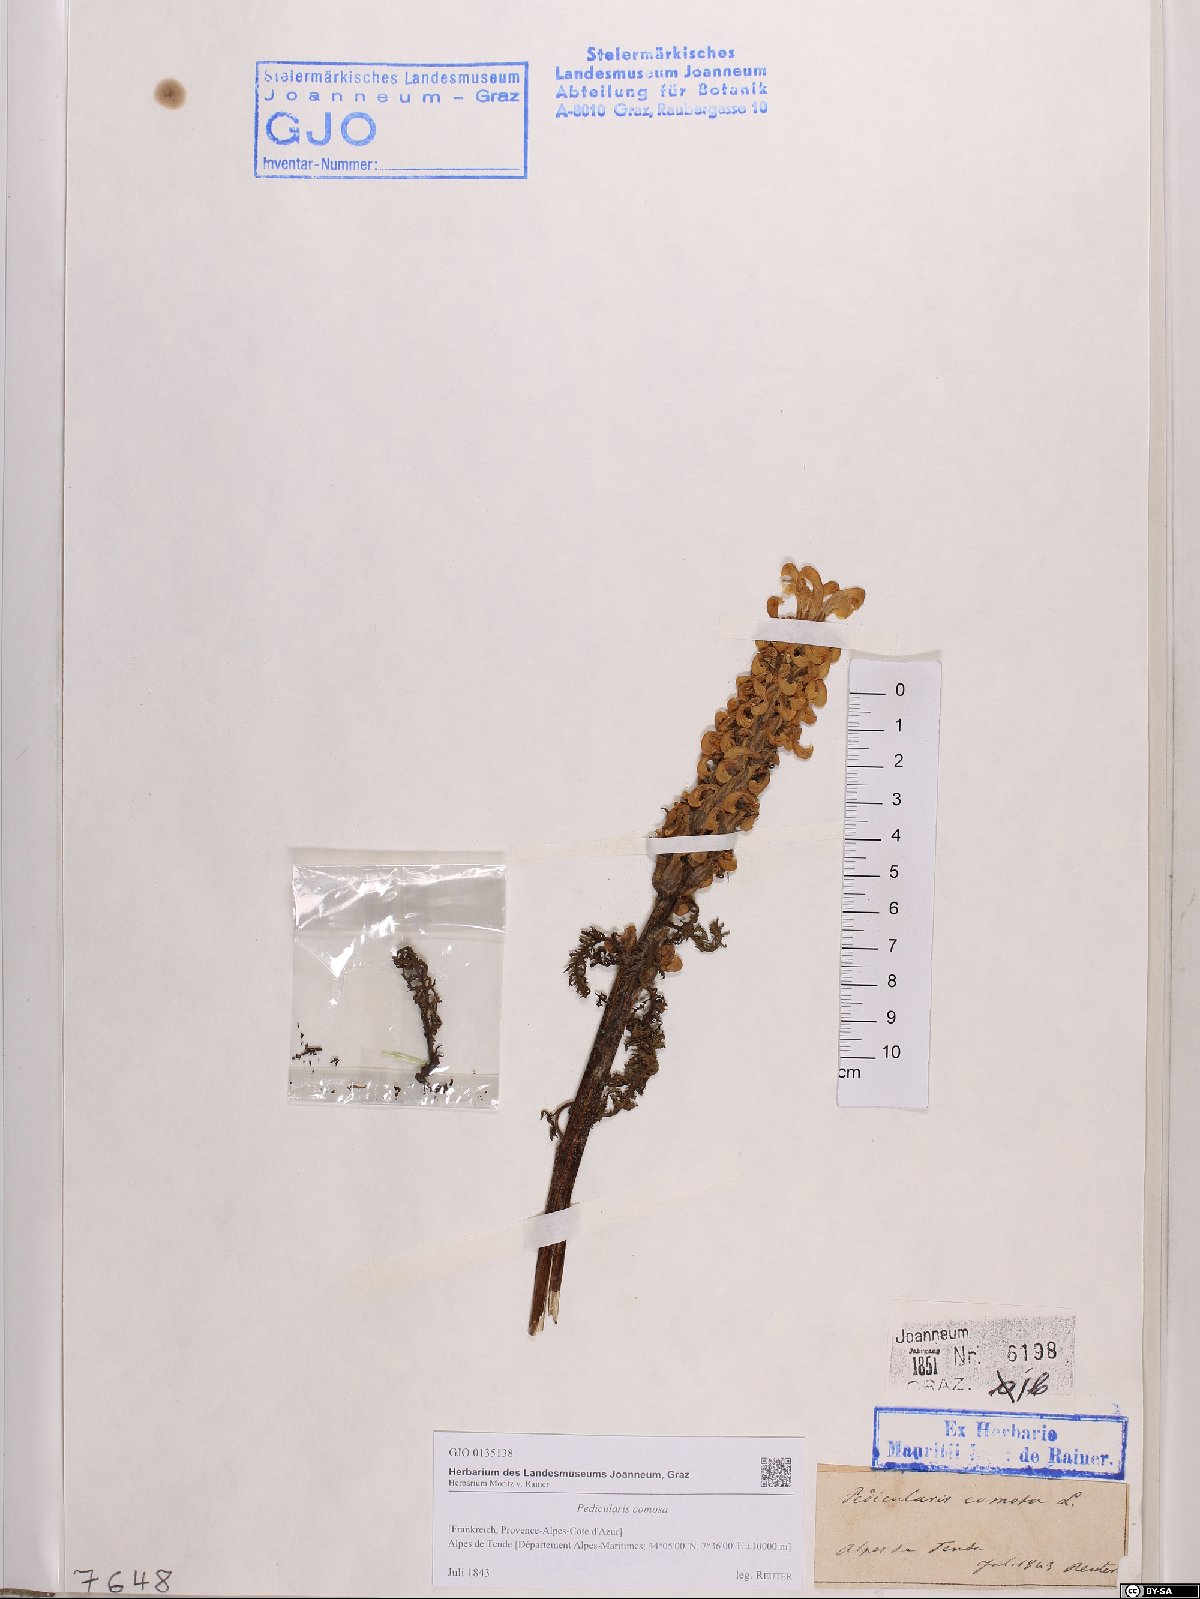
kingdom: Plantae
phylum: Tracheophyta
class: Magnoliopsida
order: Lamiales
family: Orobanchaceae
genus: Pedicularis
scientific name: Pedicularis comosa
